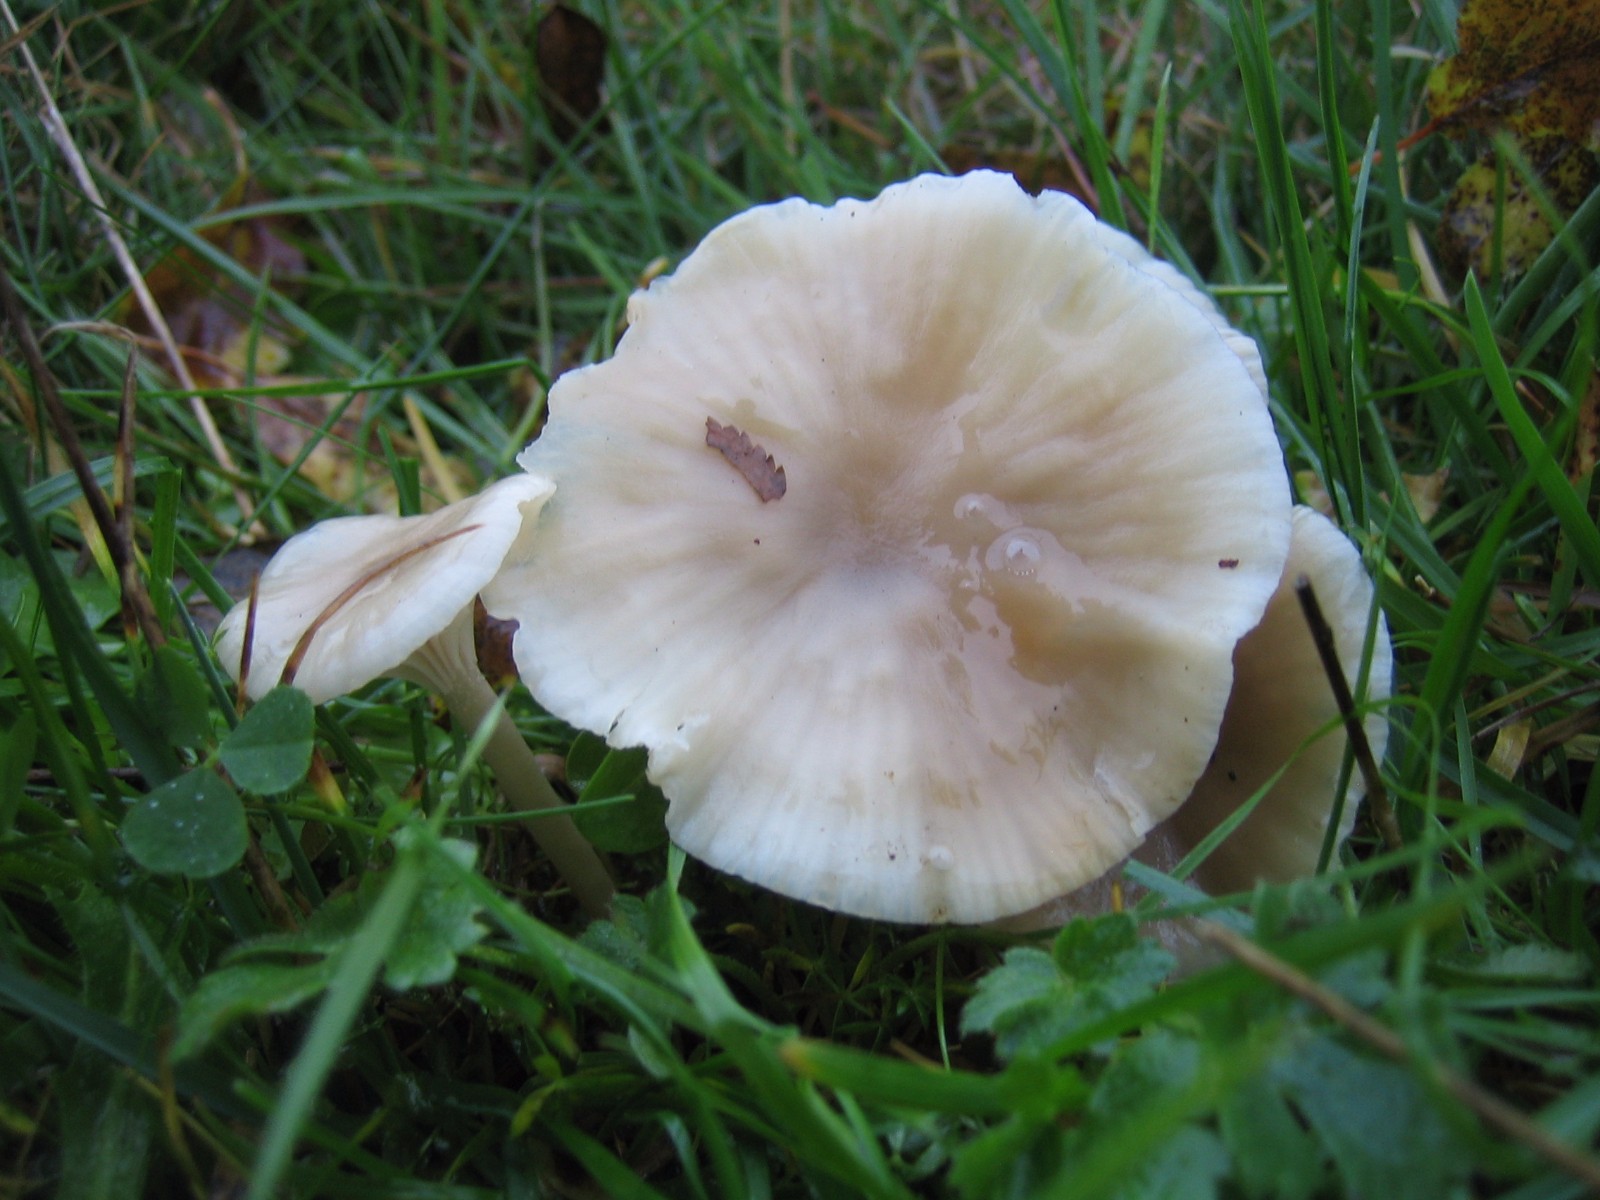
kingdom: Fungi
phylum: Basidiomycota
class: Agaricomycetes
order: Agaricales
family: Hygrophoraceae
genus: Cuphophyllus
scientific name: Cuphophyllus virgineus
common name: isabella-vokshat
